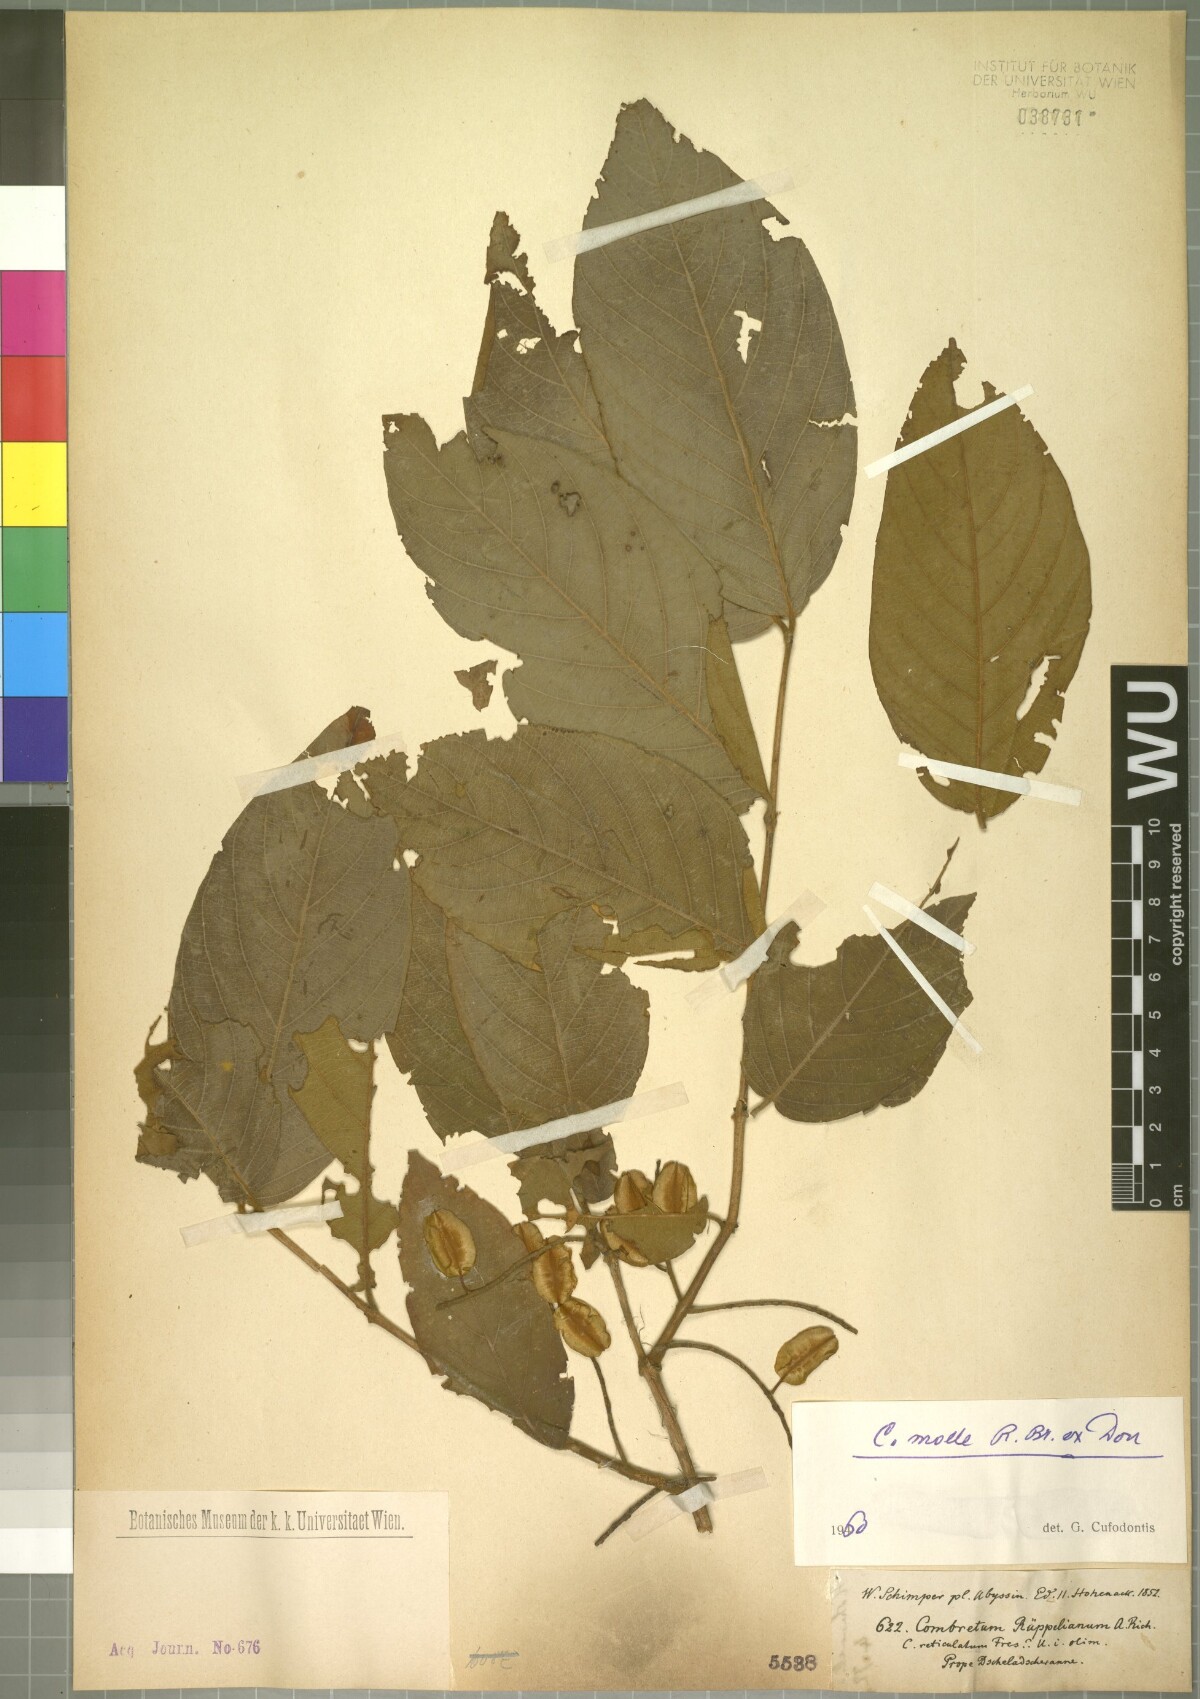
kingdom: Plantae
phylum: Tracheophyta
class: Magnoliopsida
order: Myrtales
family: Combretaceae
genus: Combretum
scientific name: Combretum molle
